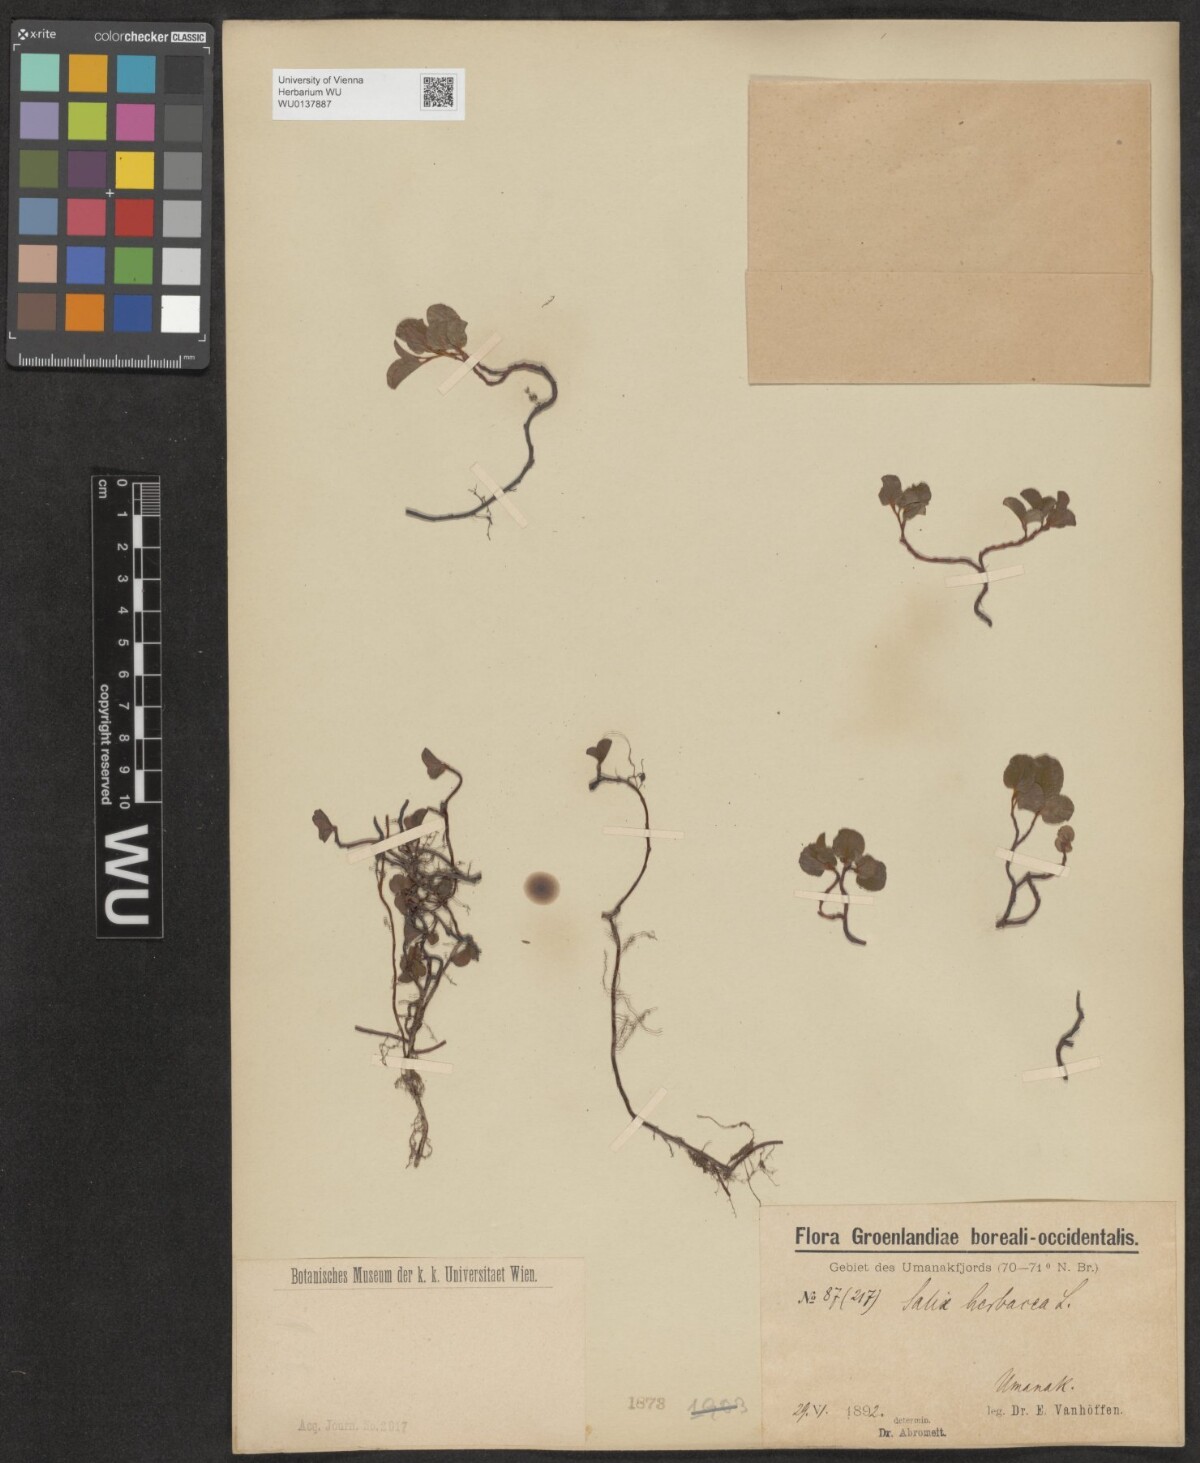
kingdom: Plantae
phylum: Tracheophyta
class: Magnoliopsida
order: Malpighiales
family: Salicaceae
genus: Salix
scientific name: Salix herbacea
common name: Dwarf willow
